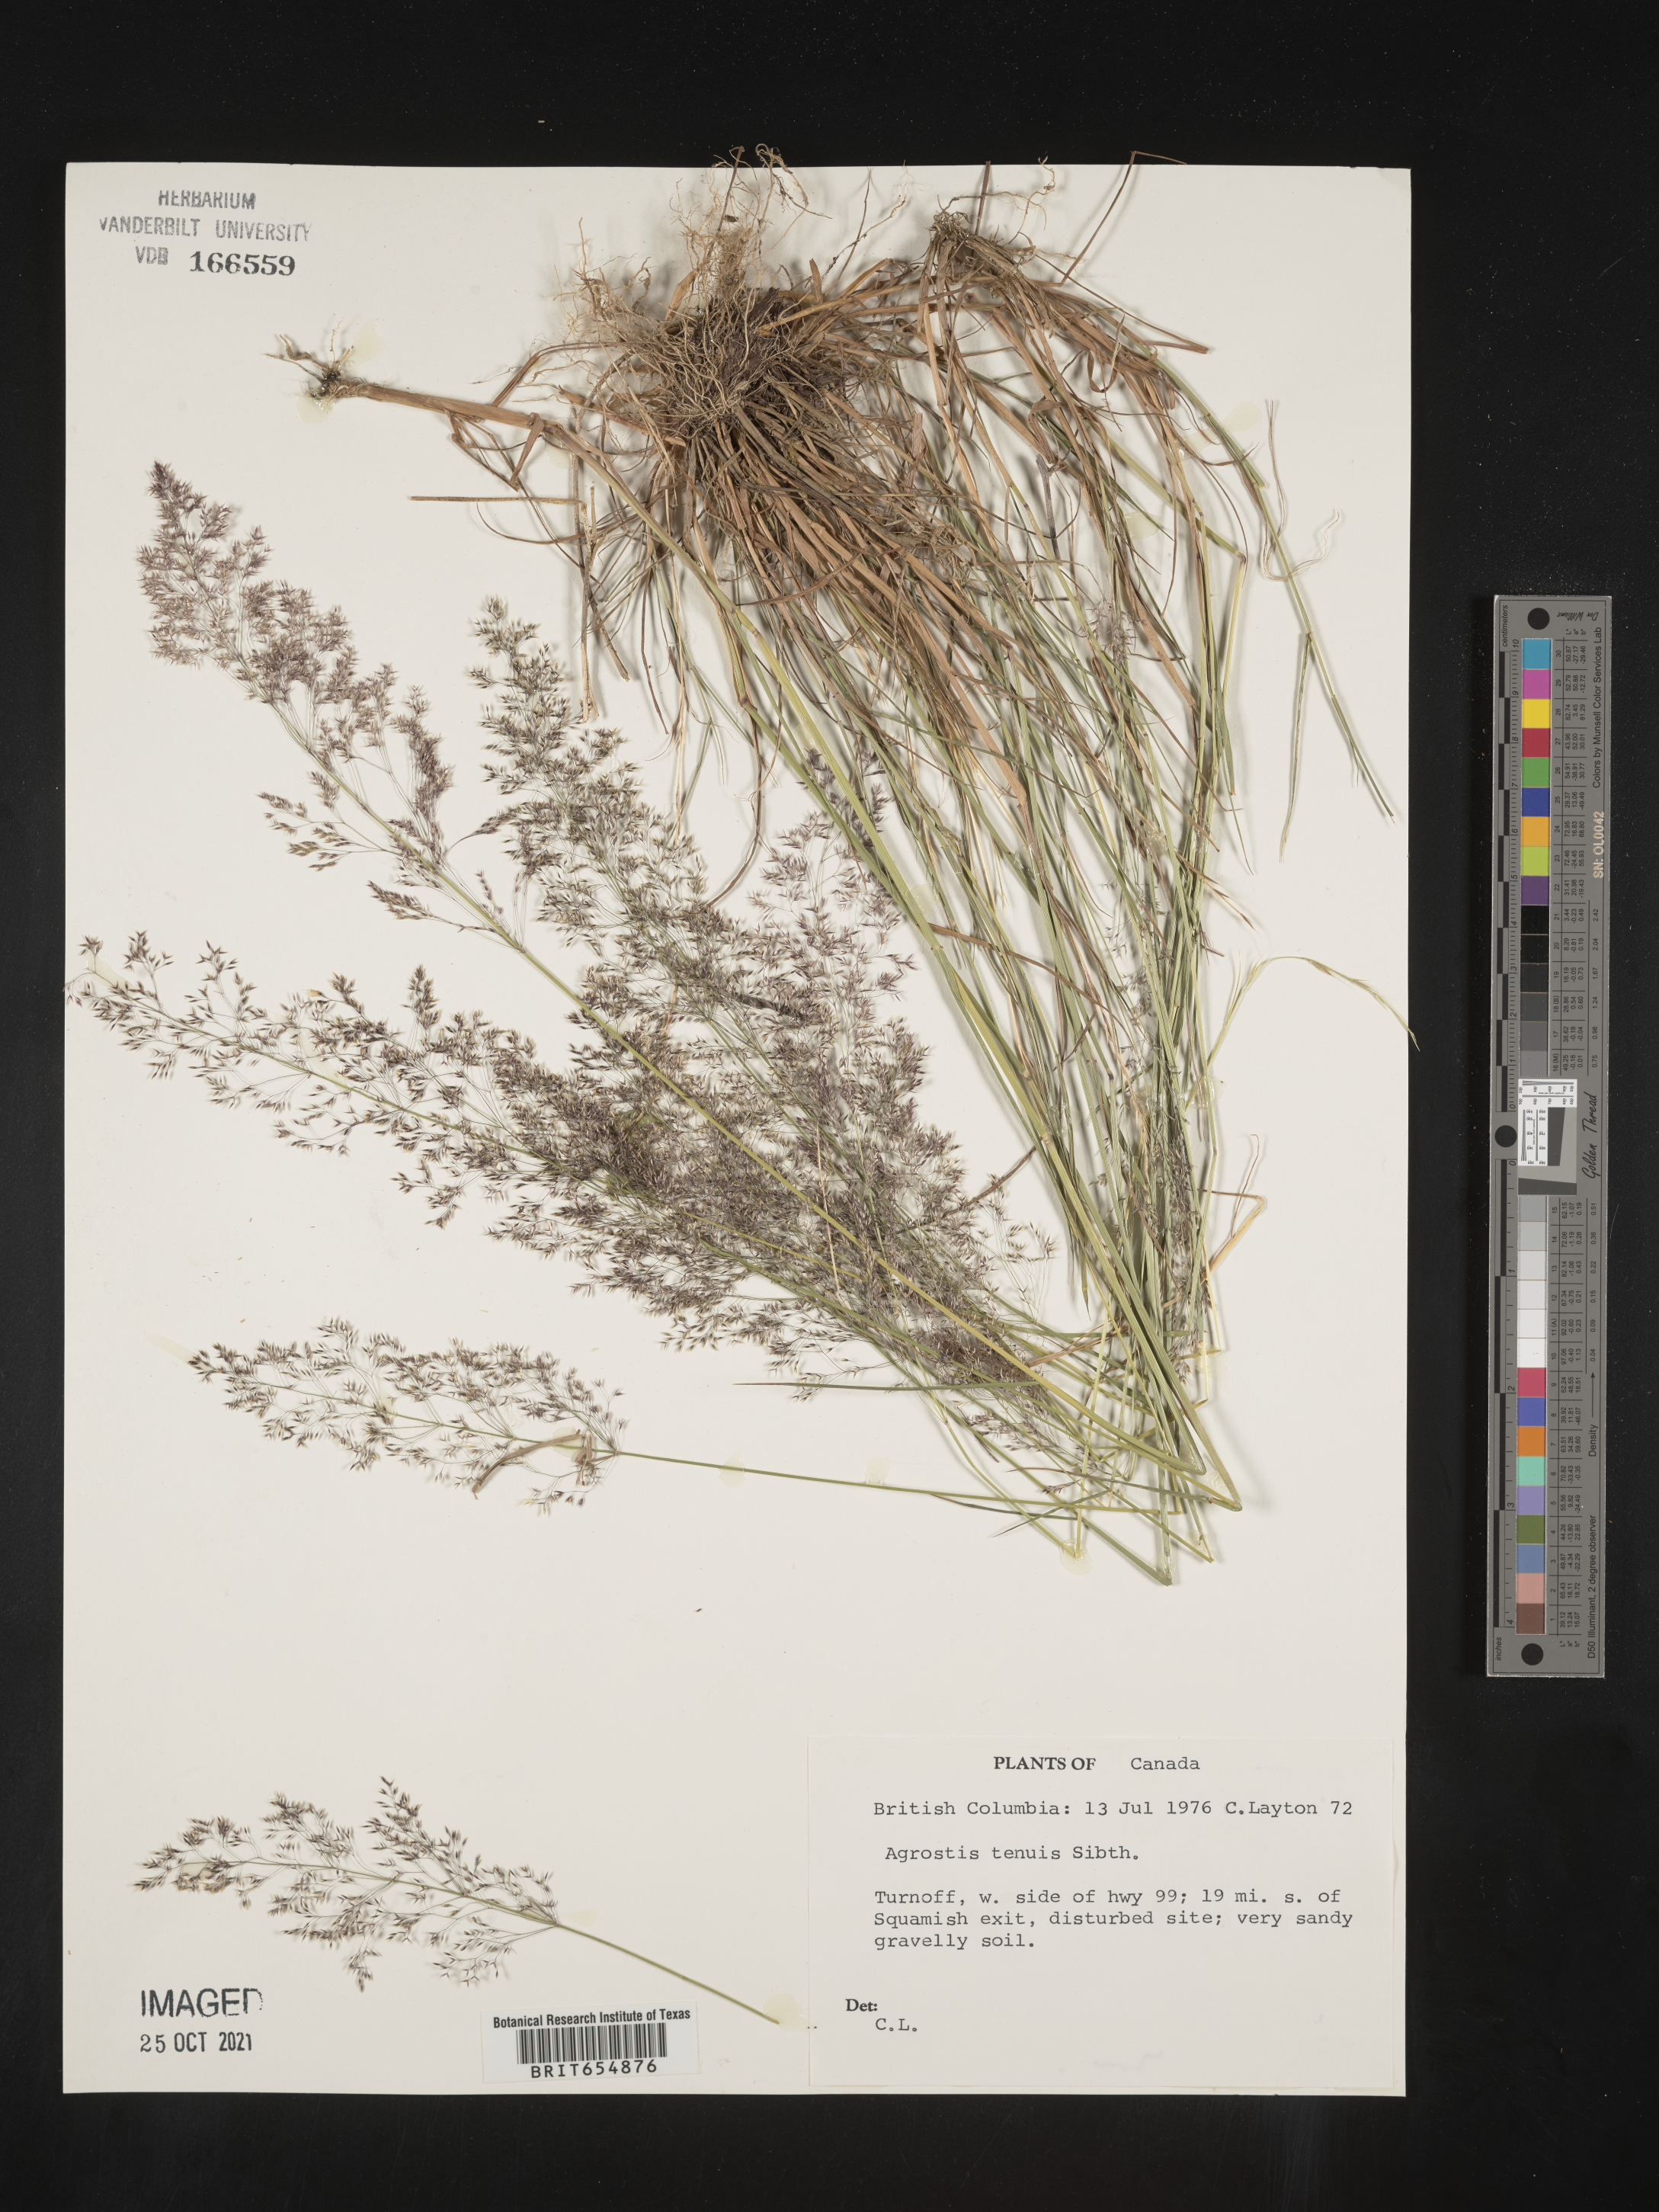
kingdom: Plantae
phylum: Tracheophyta
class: Liliopsida
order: Poales
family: Poaceae
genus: Agrostis
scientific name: Agrostis
